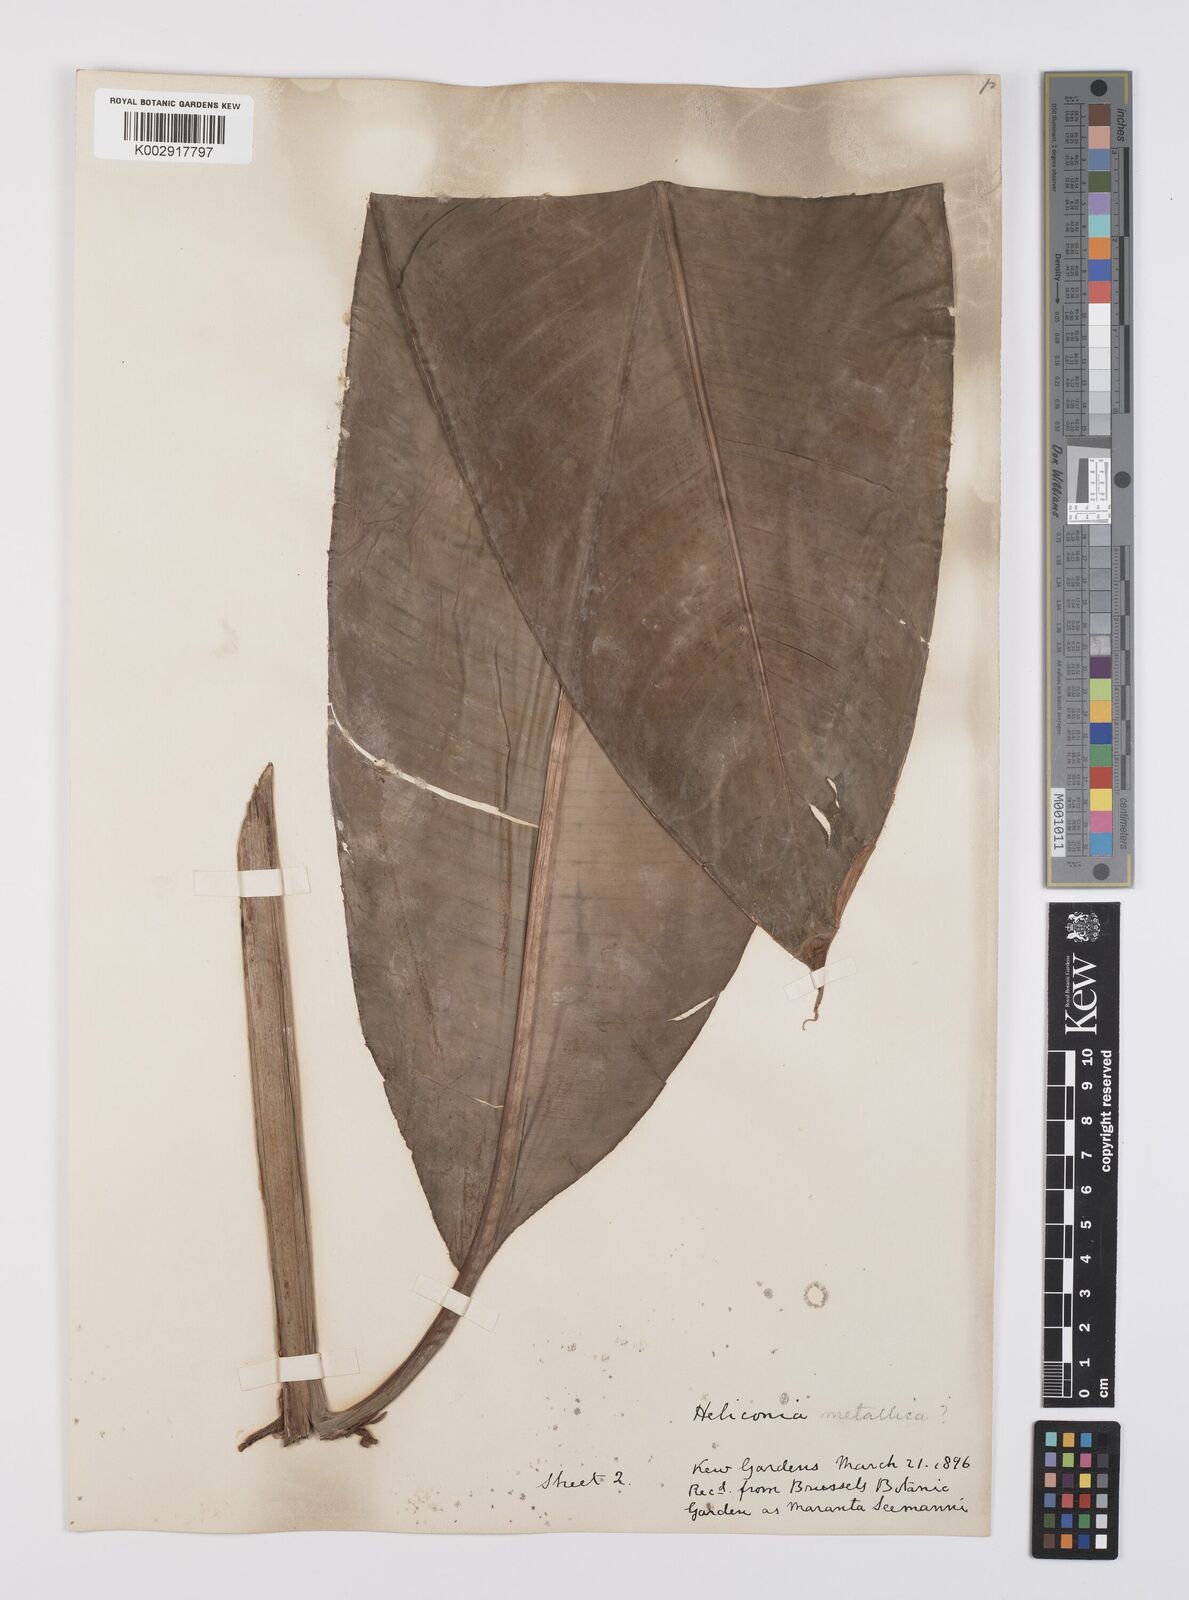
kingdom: Plantae
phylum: Tracheophyta
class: Liliopsida
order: Zingiberales
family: Heliconiaceae
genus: Heliconia
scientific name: Heliconia
